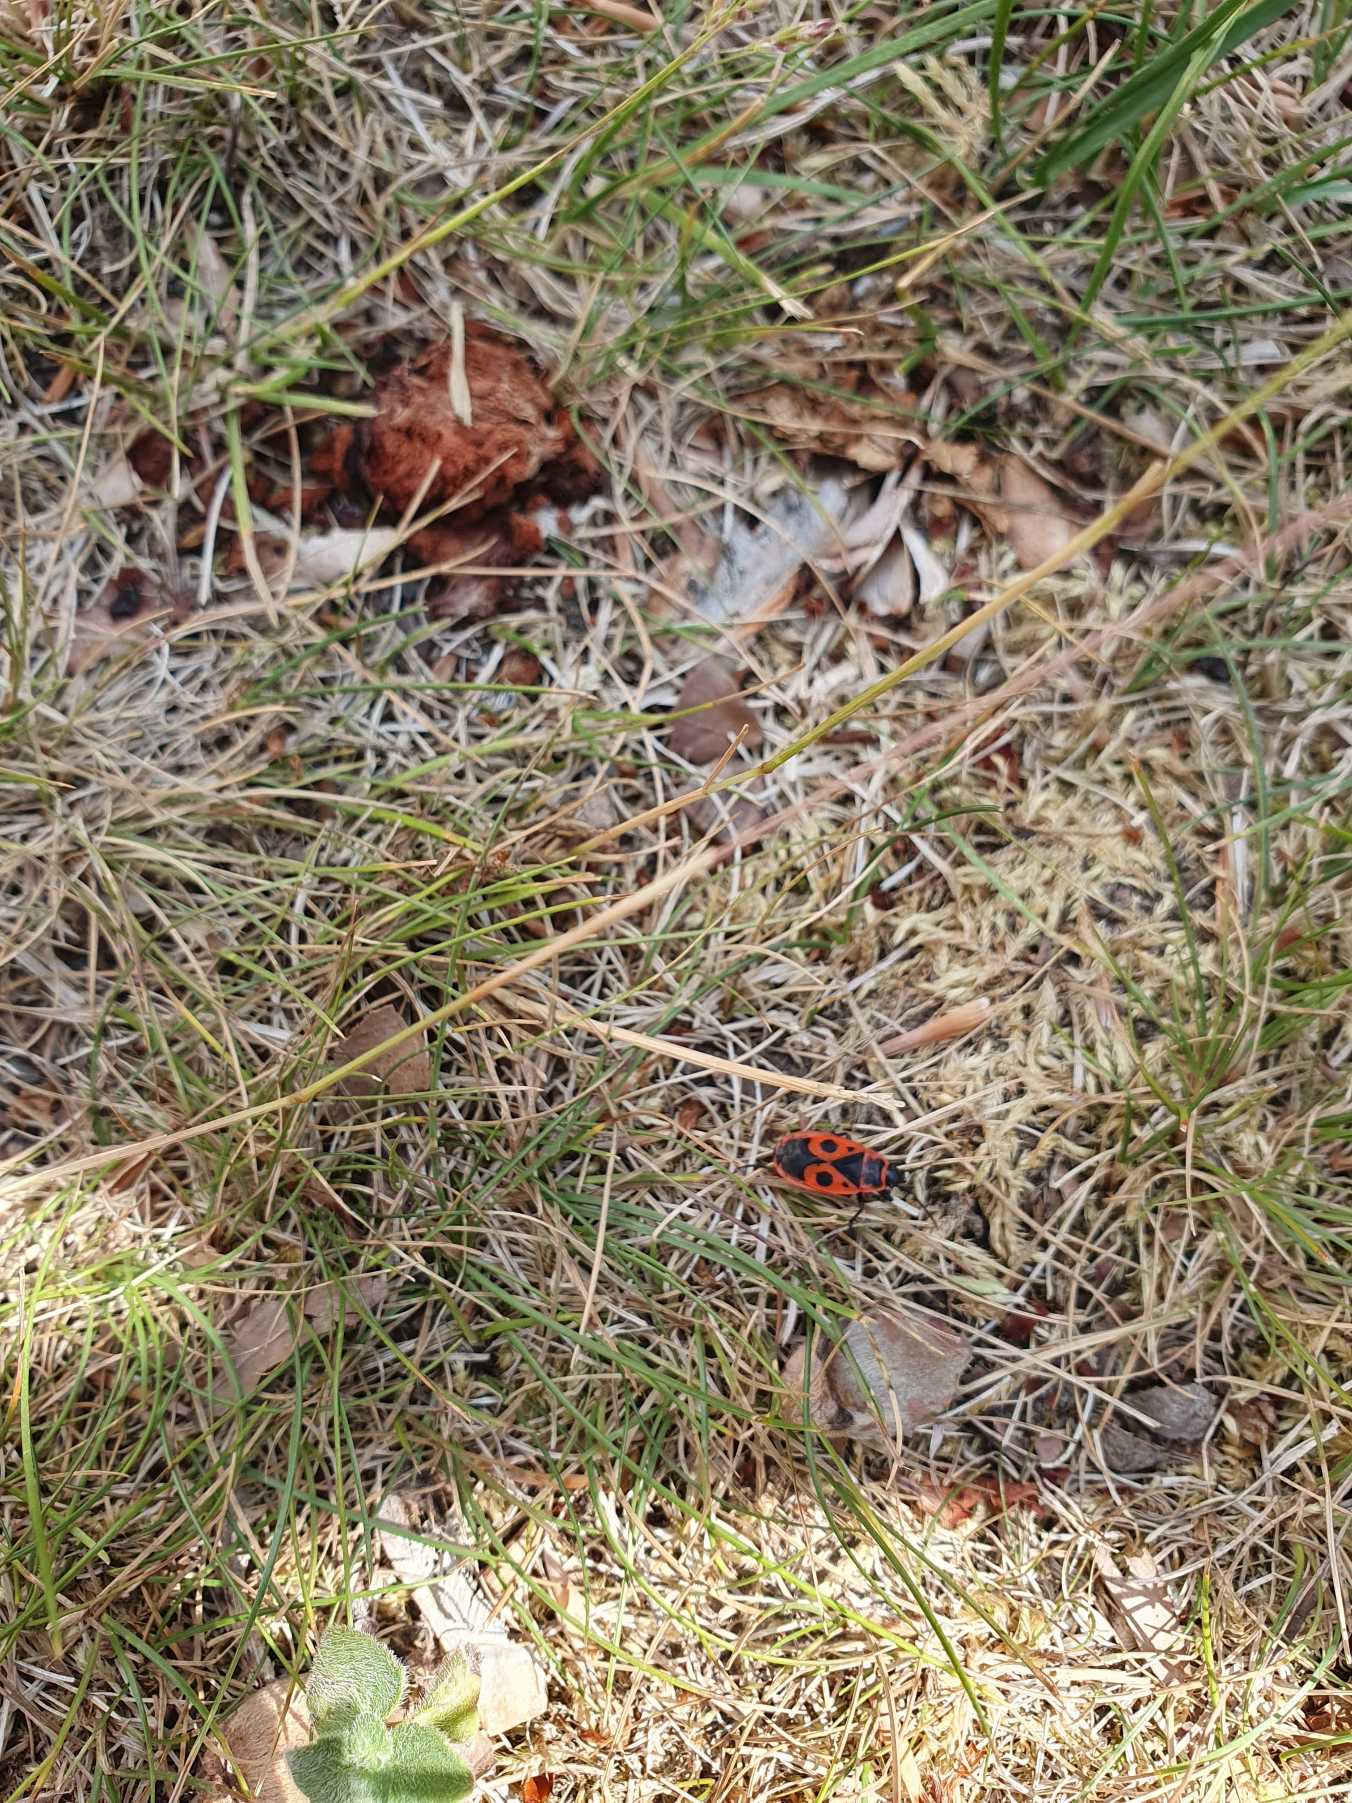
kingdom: Animalia
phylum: Arthropoda
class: Insecta
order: Hemiptera
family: Pyrrhocoridae
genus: Pyrrhocoris
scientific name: Pyrrhocoris apterus
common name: Ildtæge
